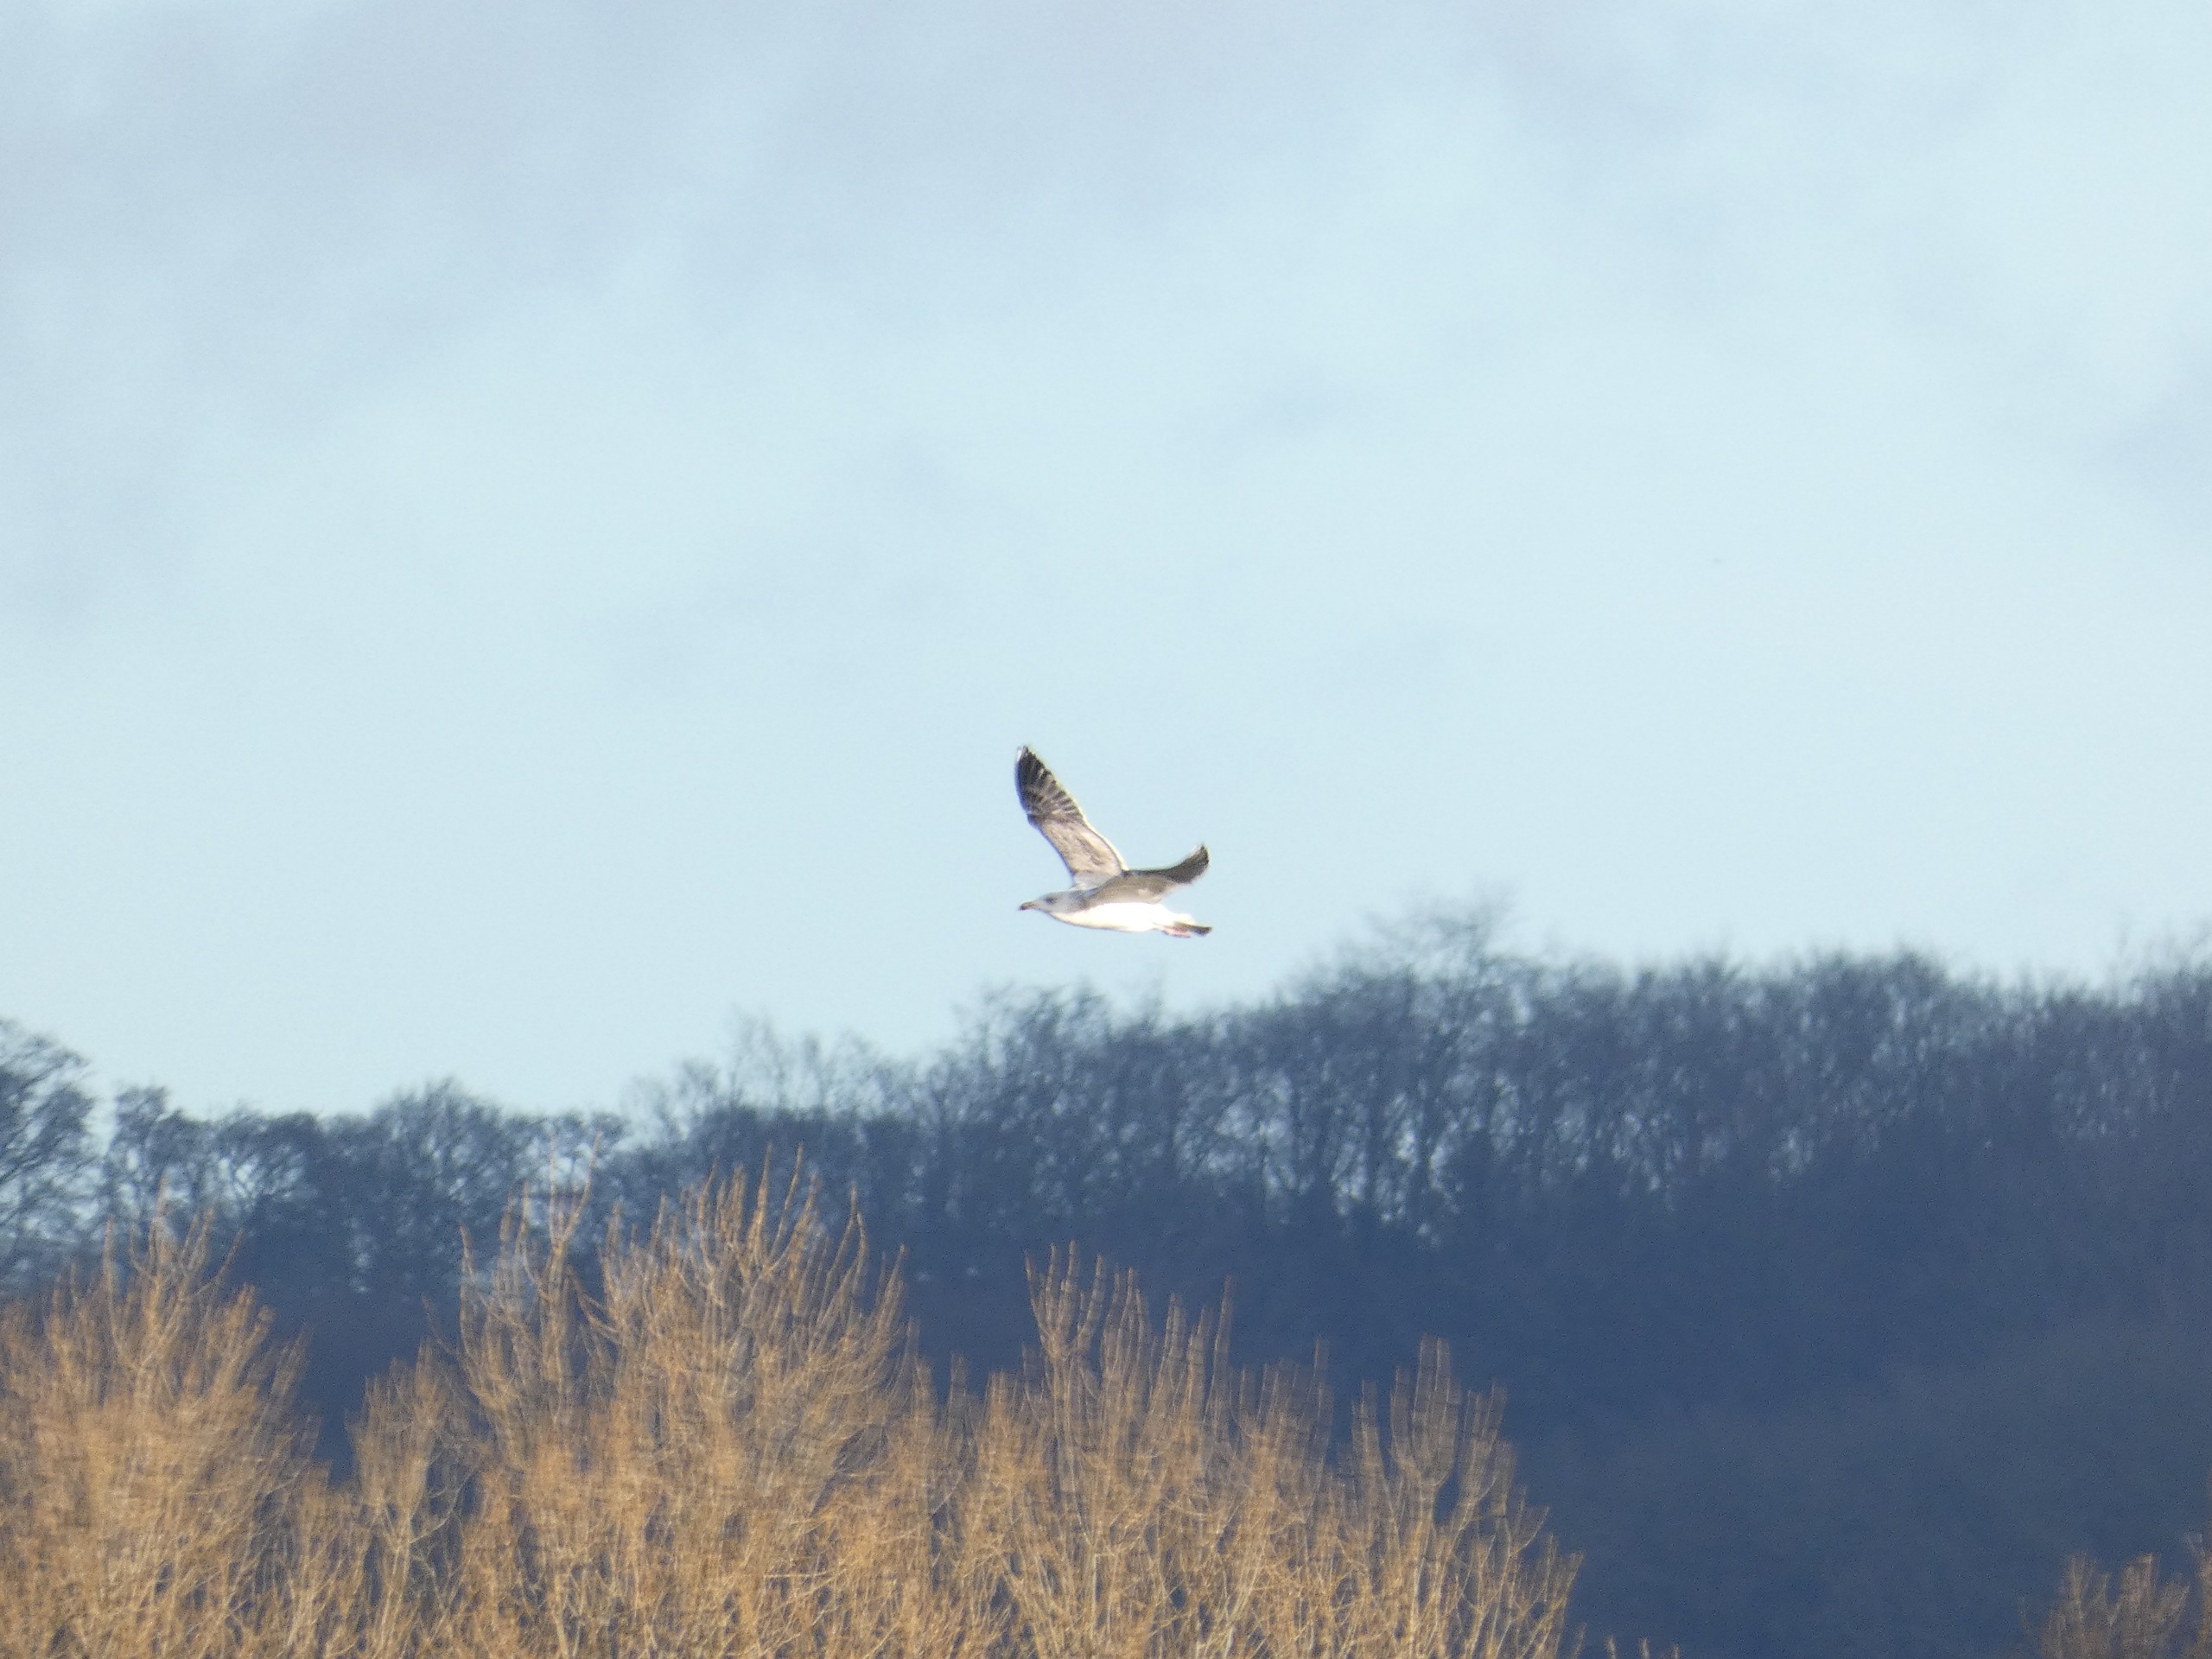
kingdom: Animalia
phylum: Chordata
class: Aves
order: Charadriiformes
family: Laridae
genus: Larus
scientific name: Larus argentatus
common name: Sølvmåge
